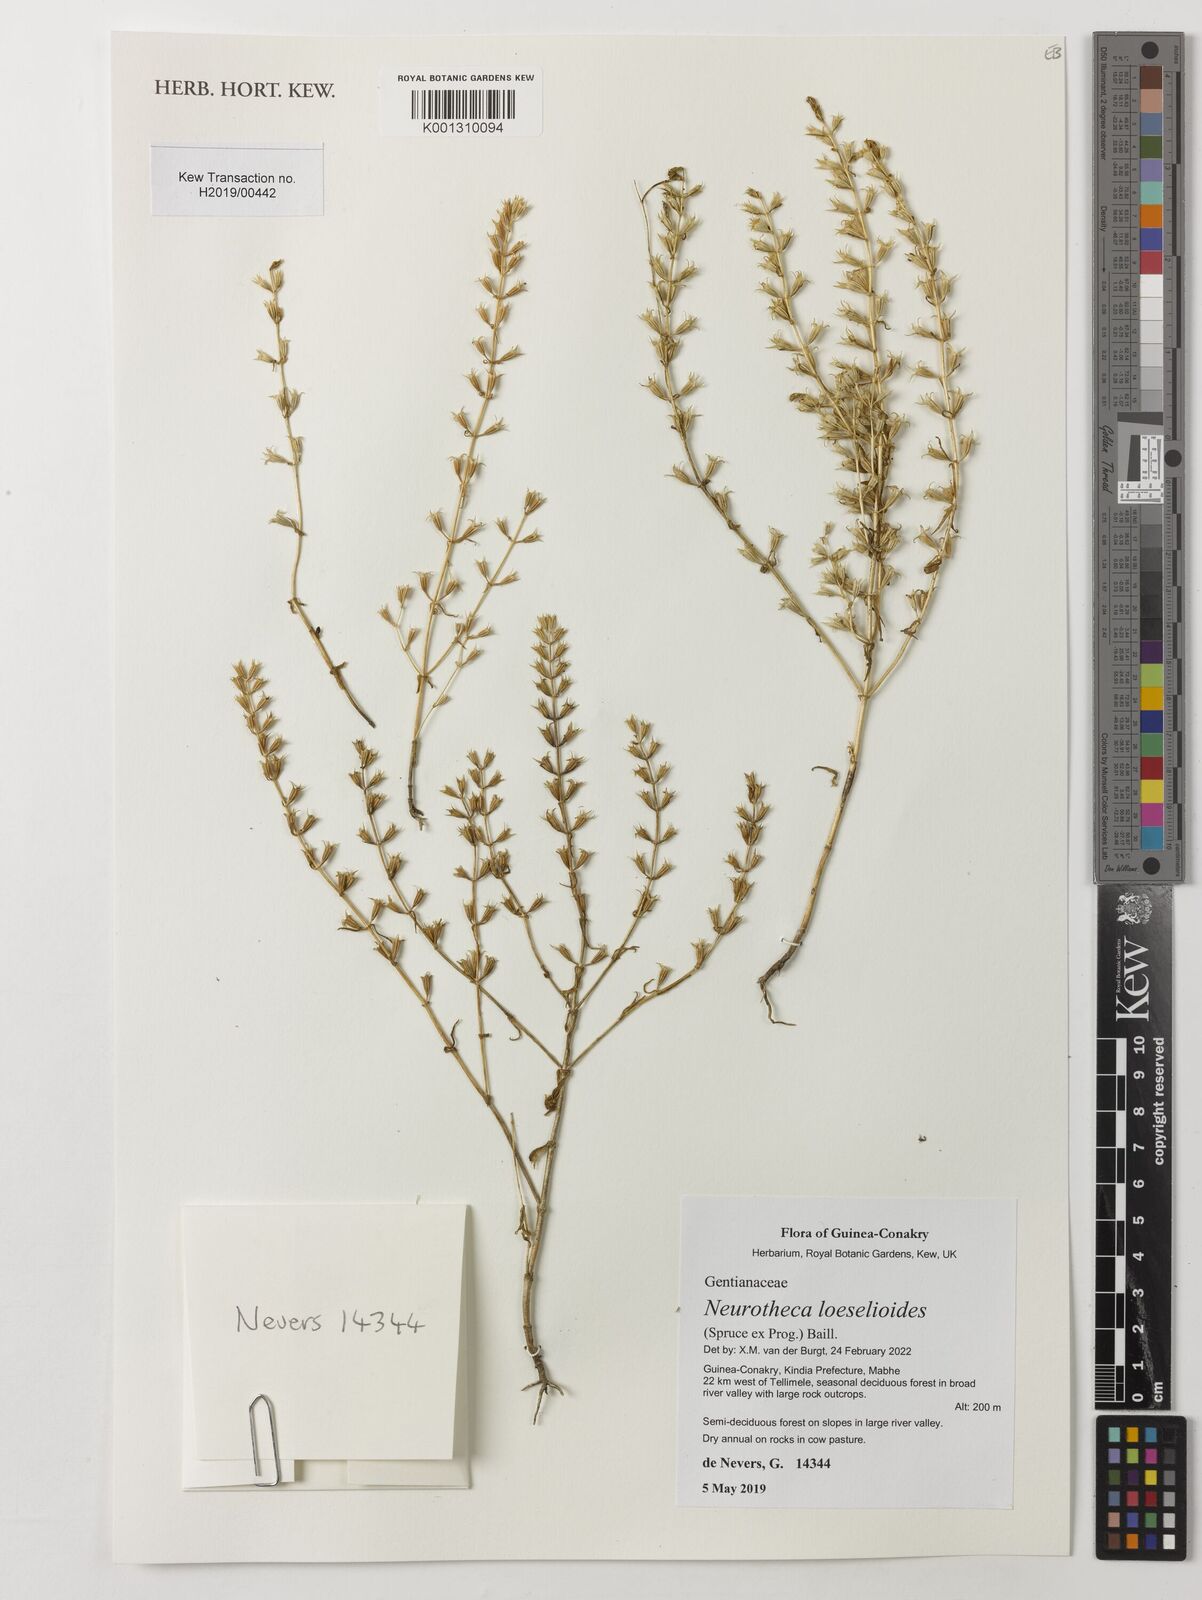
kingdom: Plantae
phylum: Tracheophyta
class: Magnoliopsida
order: Gentianales
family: Gentianaceae
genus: Neurotheca
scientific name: Neurotheca loeselioides
